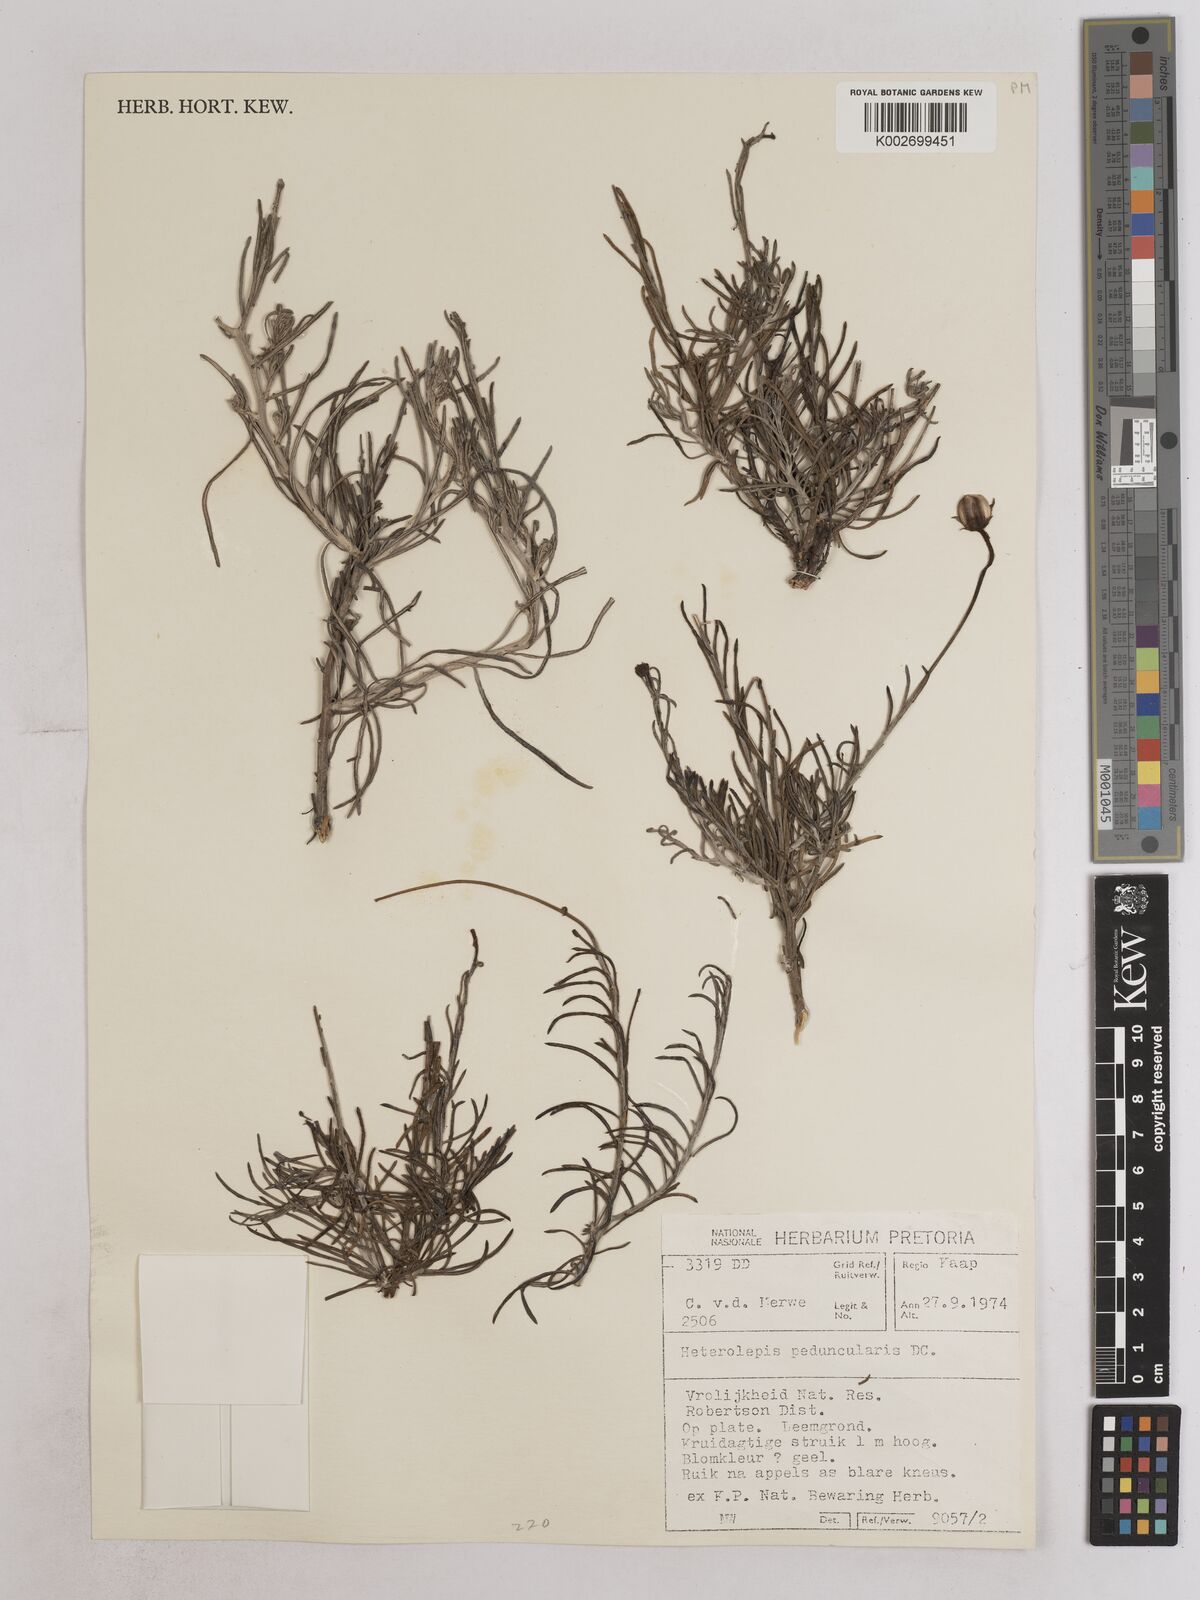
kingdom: Plantae
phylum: Tracheophyta
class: Magnoliopsida
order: Asterales
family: Asteraceae
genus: Heterolepis
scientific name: Heterolepis peduncularis
